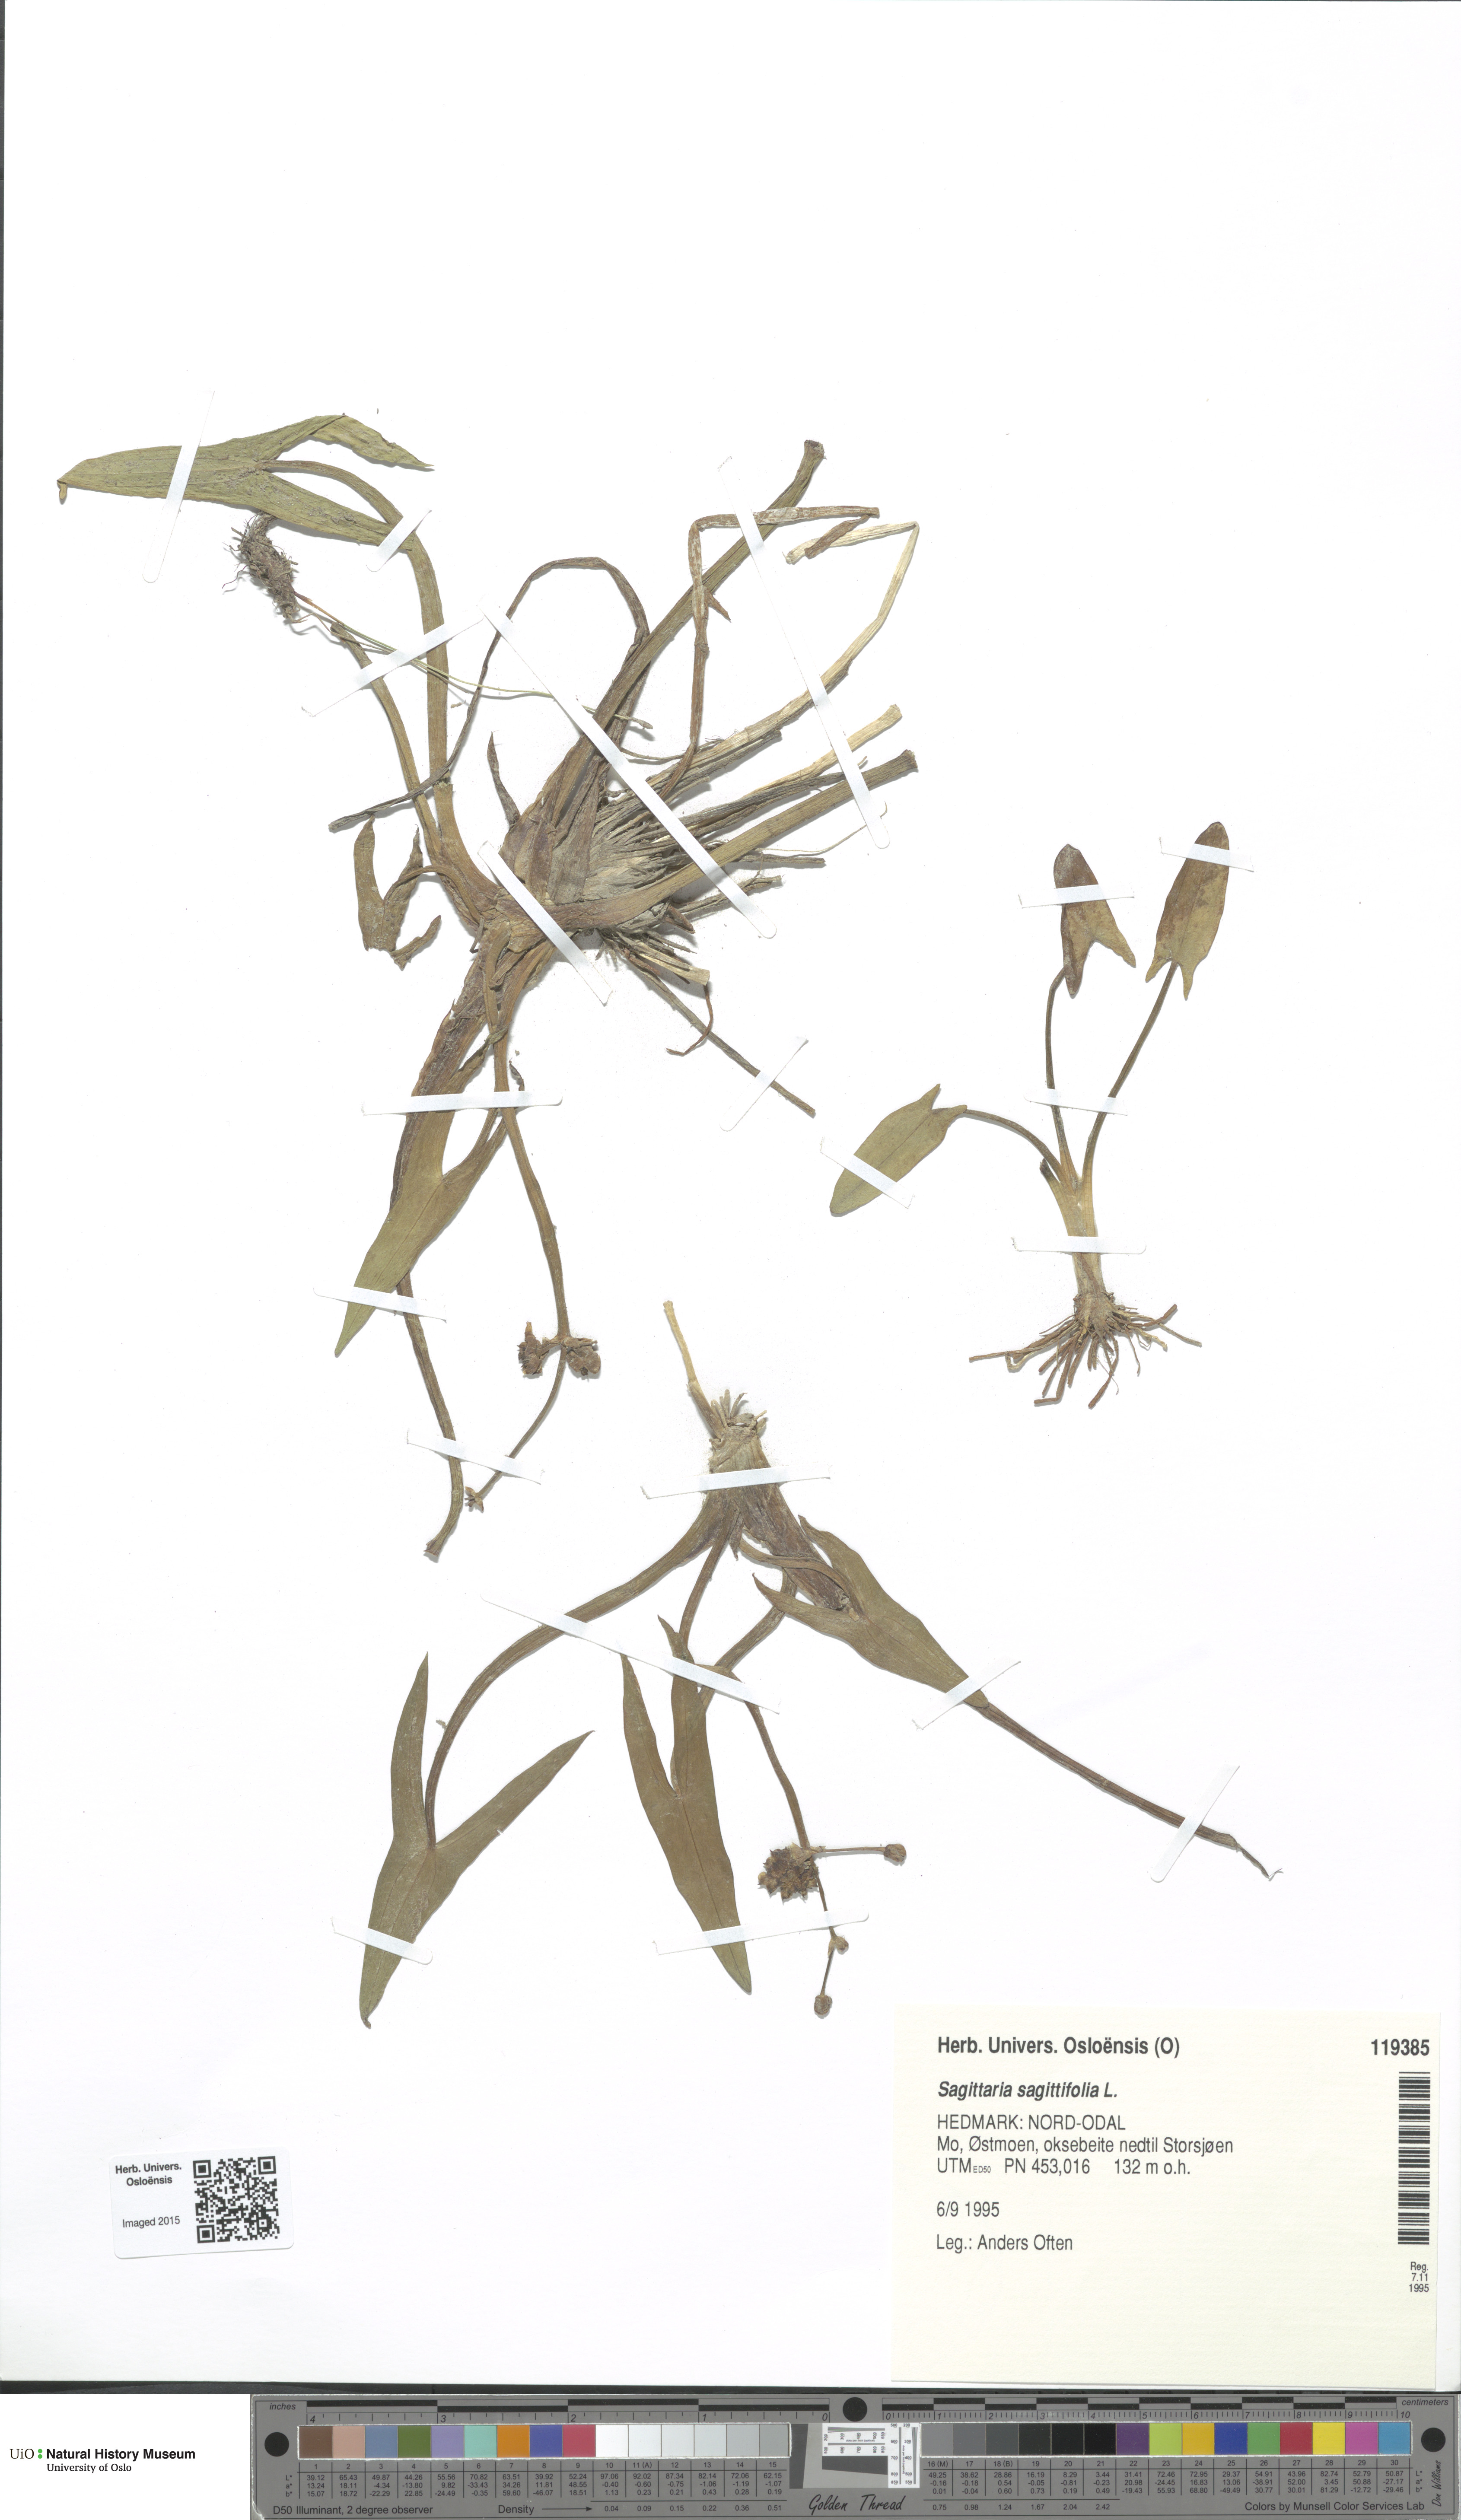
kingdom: Plantae
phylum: Tracheophyta
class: Liliopsida
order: Alismatales
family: Alismataceae
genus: Sagittaria
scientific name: Sagittaria sagittifolia
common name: Arrowhead
